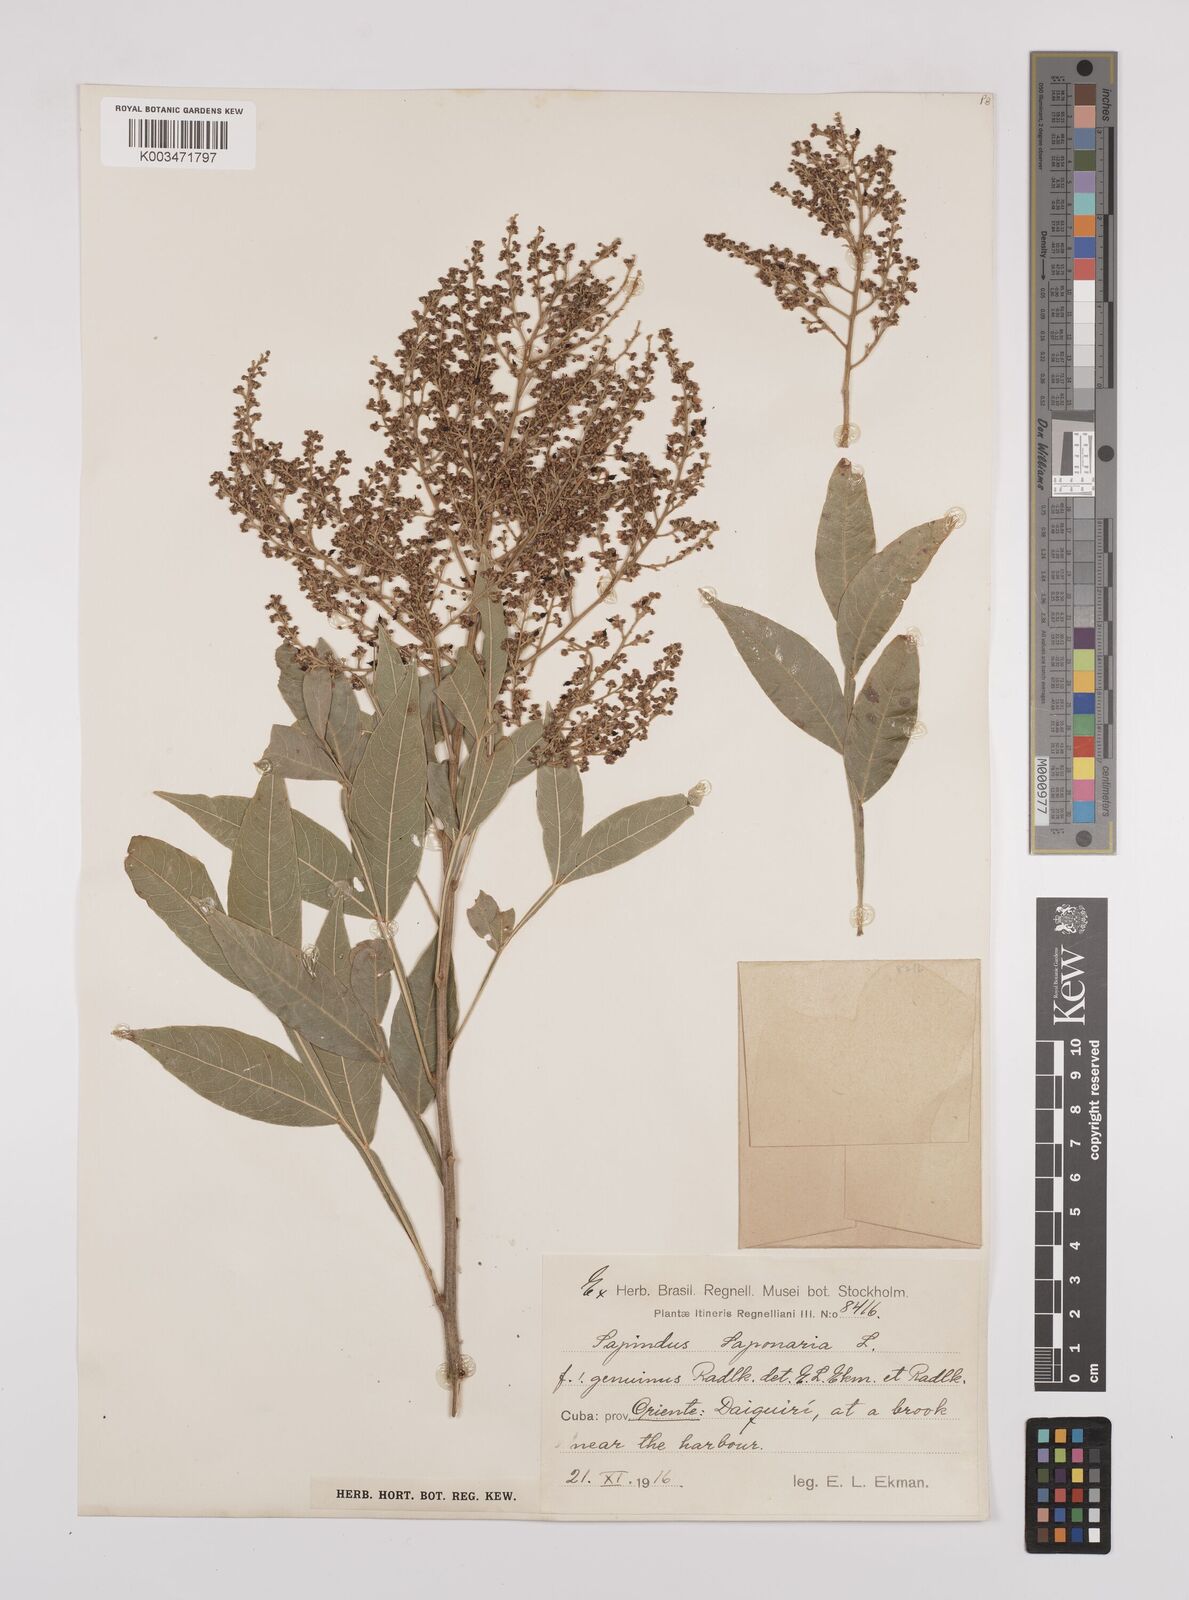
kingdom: Plantae
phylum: Tracheophyta
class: Magnoliopsida
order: Sapindales
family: Sapindaceae
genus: Sapindus
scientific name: Sapindus saponaria
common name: Wingleaf soapberry
